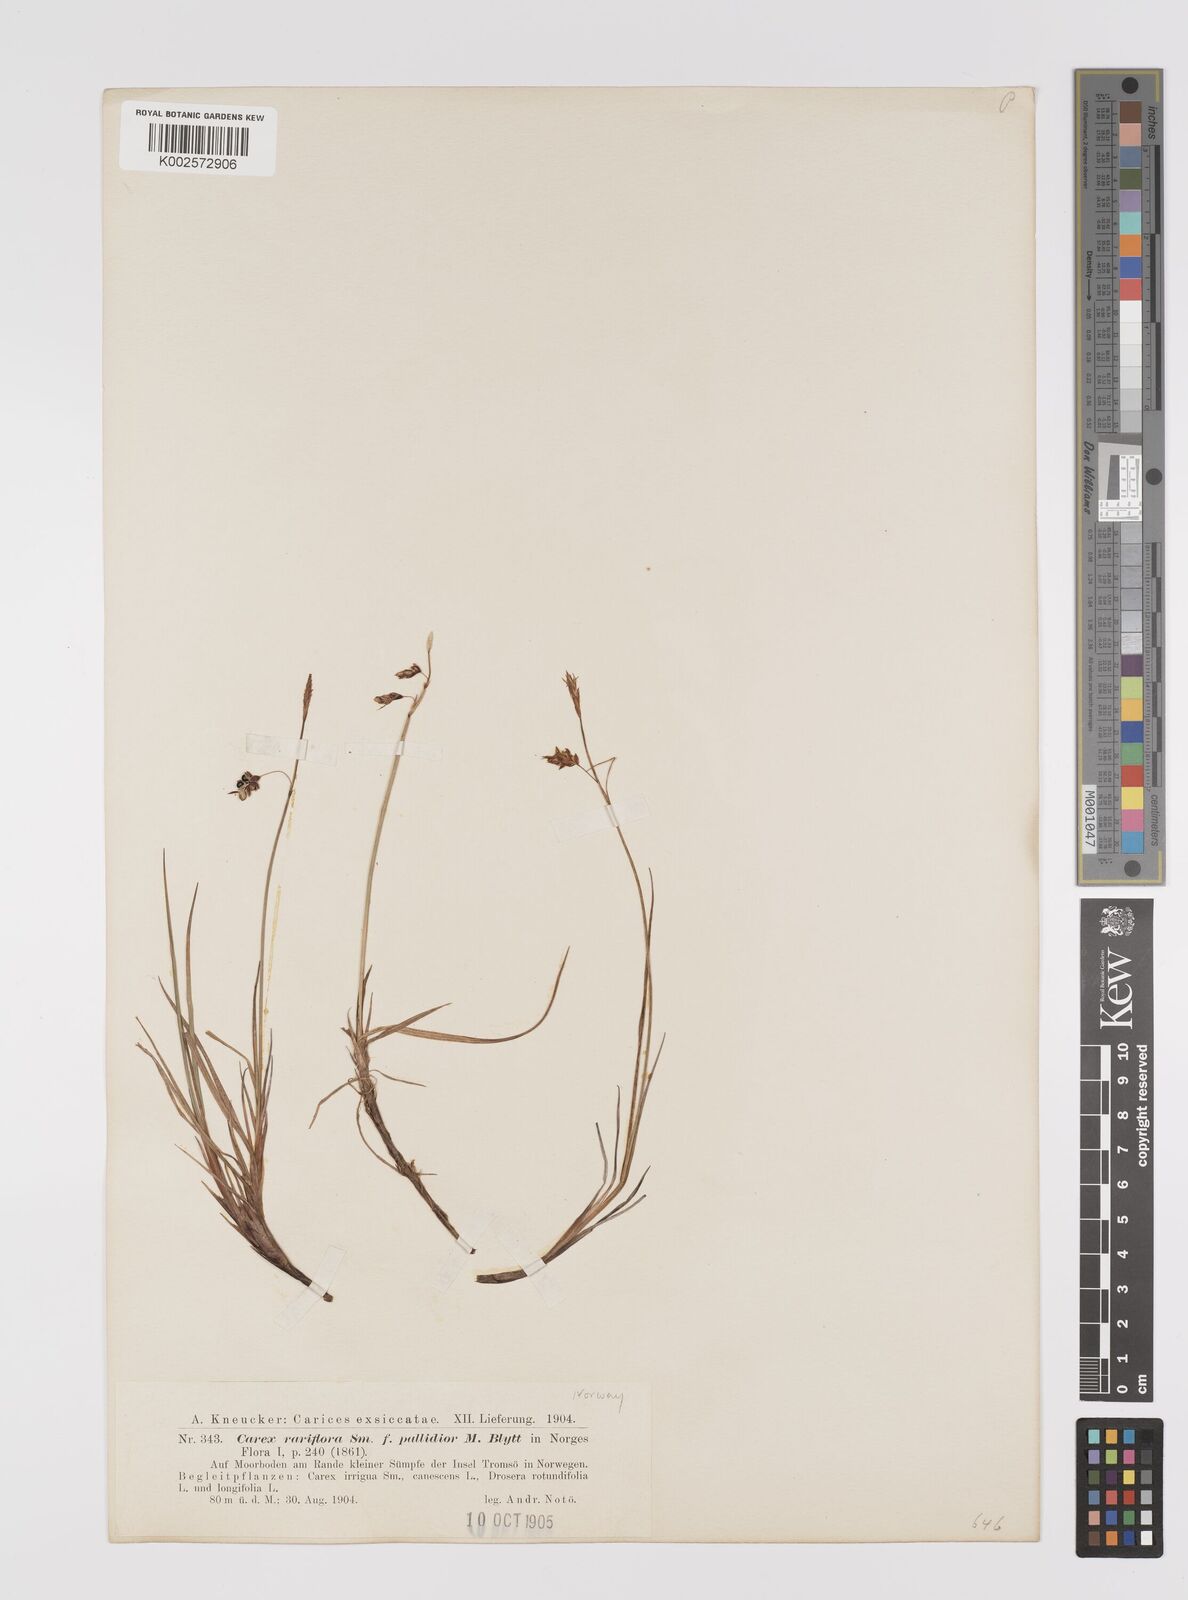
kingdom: Plantae
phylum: Tracheophyta
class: Liliopsida
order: Poales
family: Cyperaceae
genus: Carex
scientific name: Carex rariflora
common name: Loose-flowered alpine sedge
